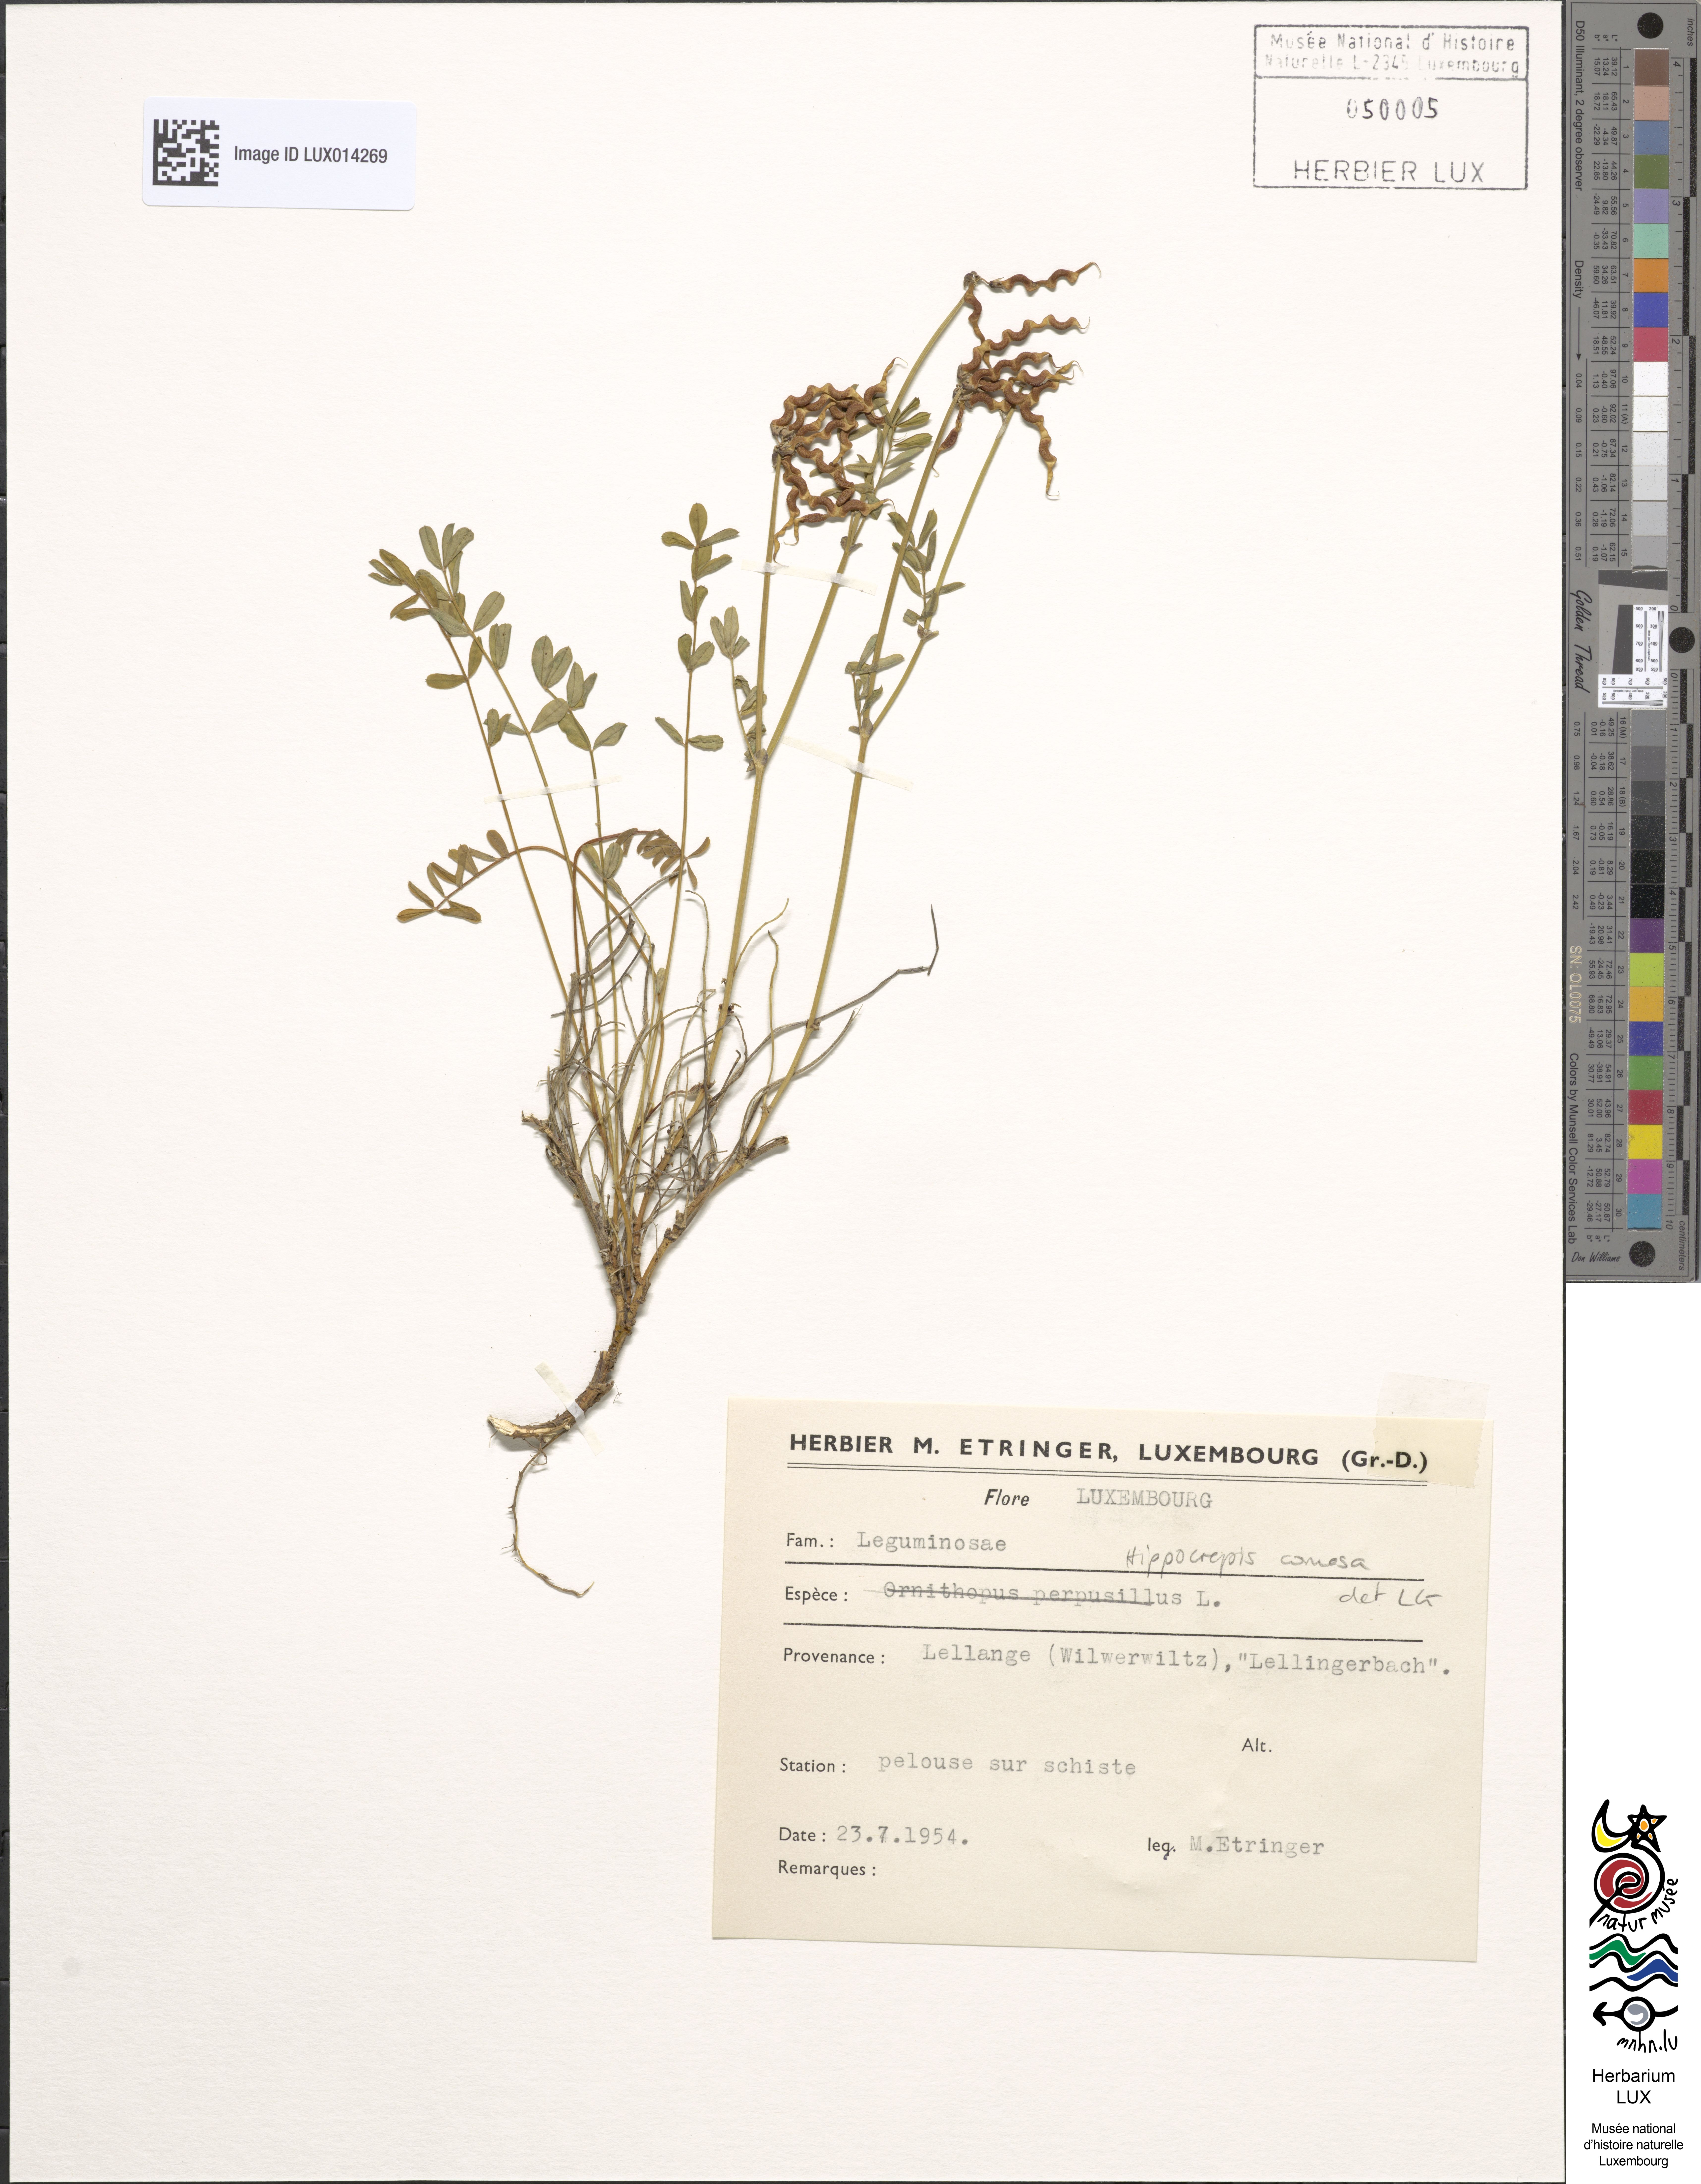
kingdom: Plantae
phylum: Tracheophyta
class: Magnoliopsida
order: Fabales
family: Fabaceae
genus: Hippocrepis
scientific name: Hippocrepis comosa
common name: Horseshoe vetch
